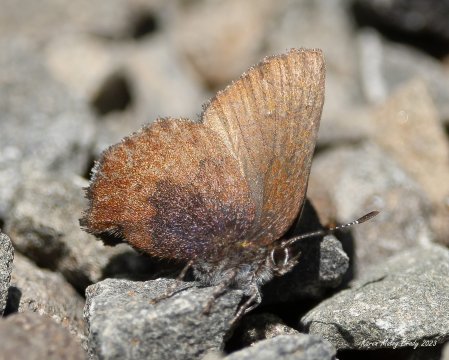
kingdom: Animalia
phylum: Arthropoda
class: Insecta
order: Lepidoptera
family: Lycaenidae
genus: Incisalia
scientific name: Incisalia irioides
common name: Brown Elfin
